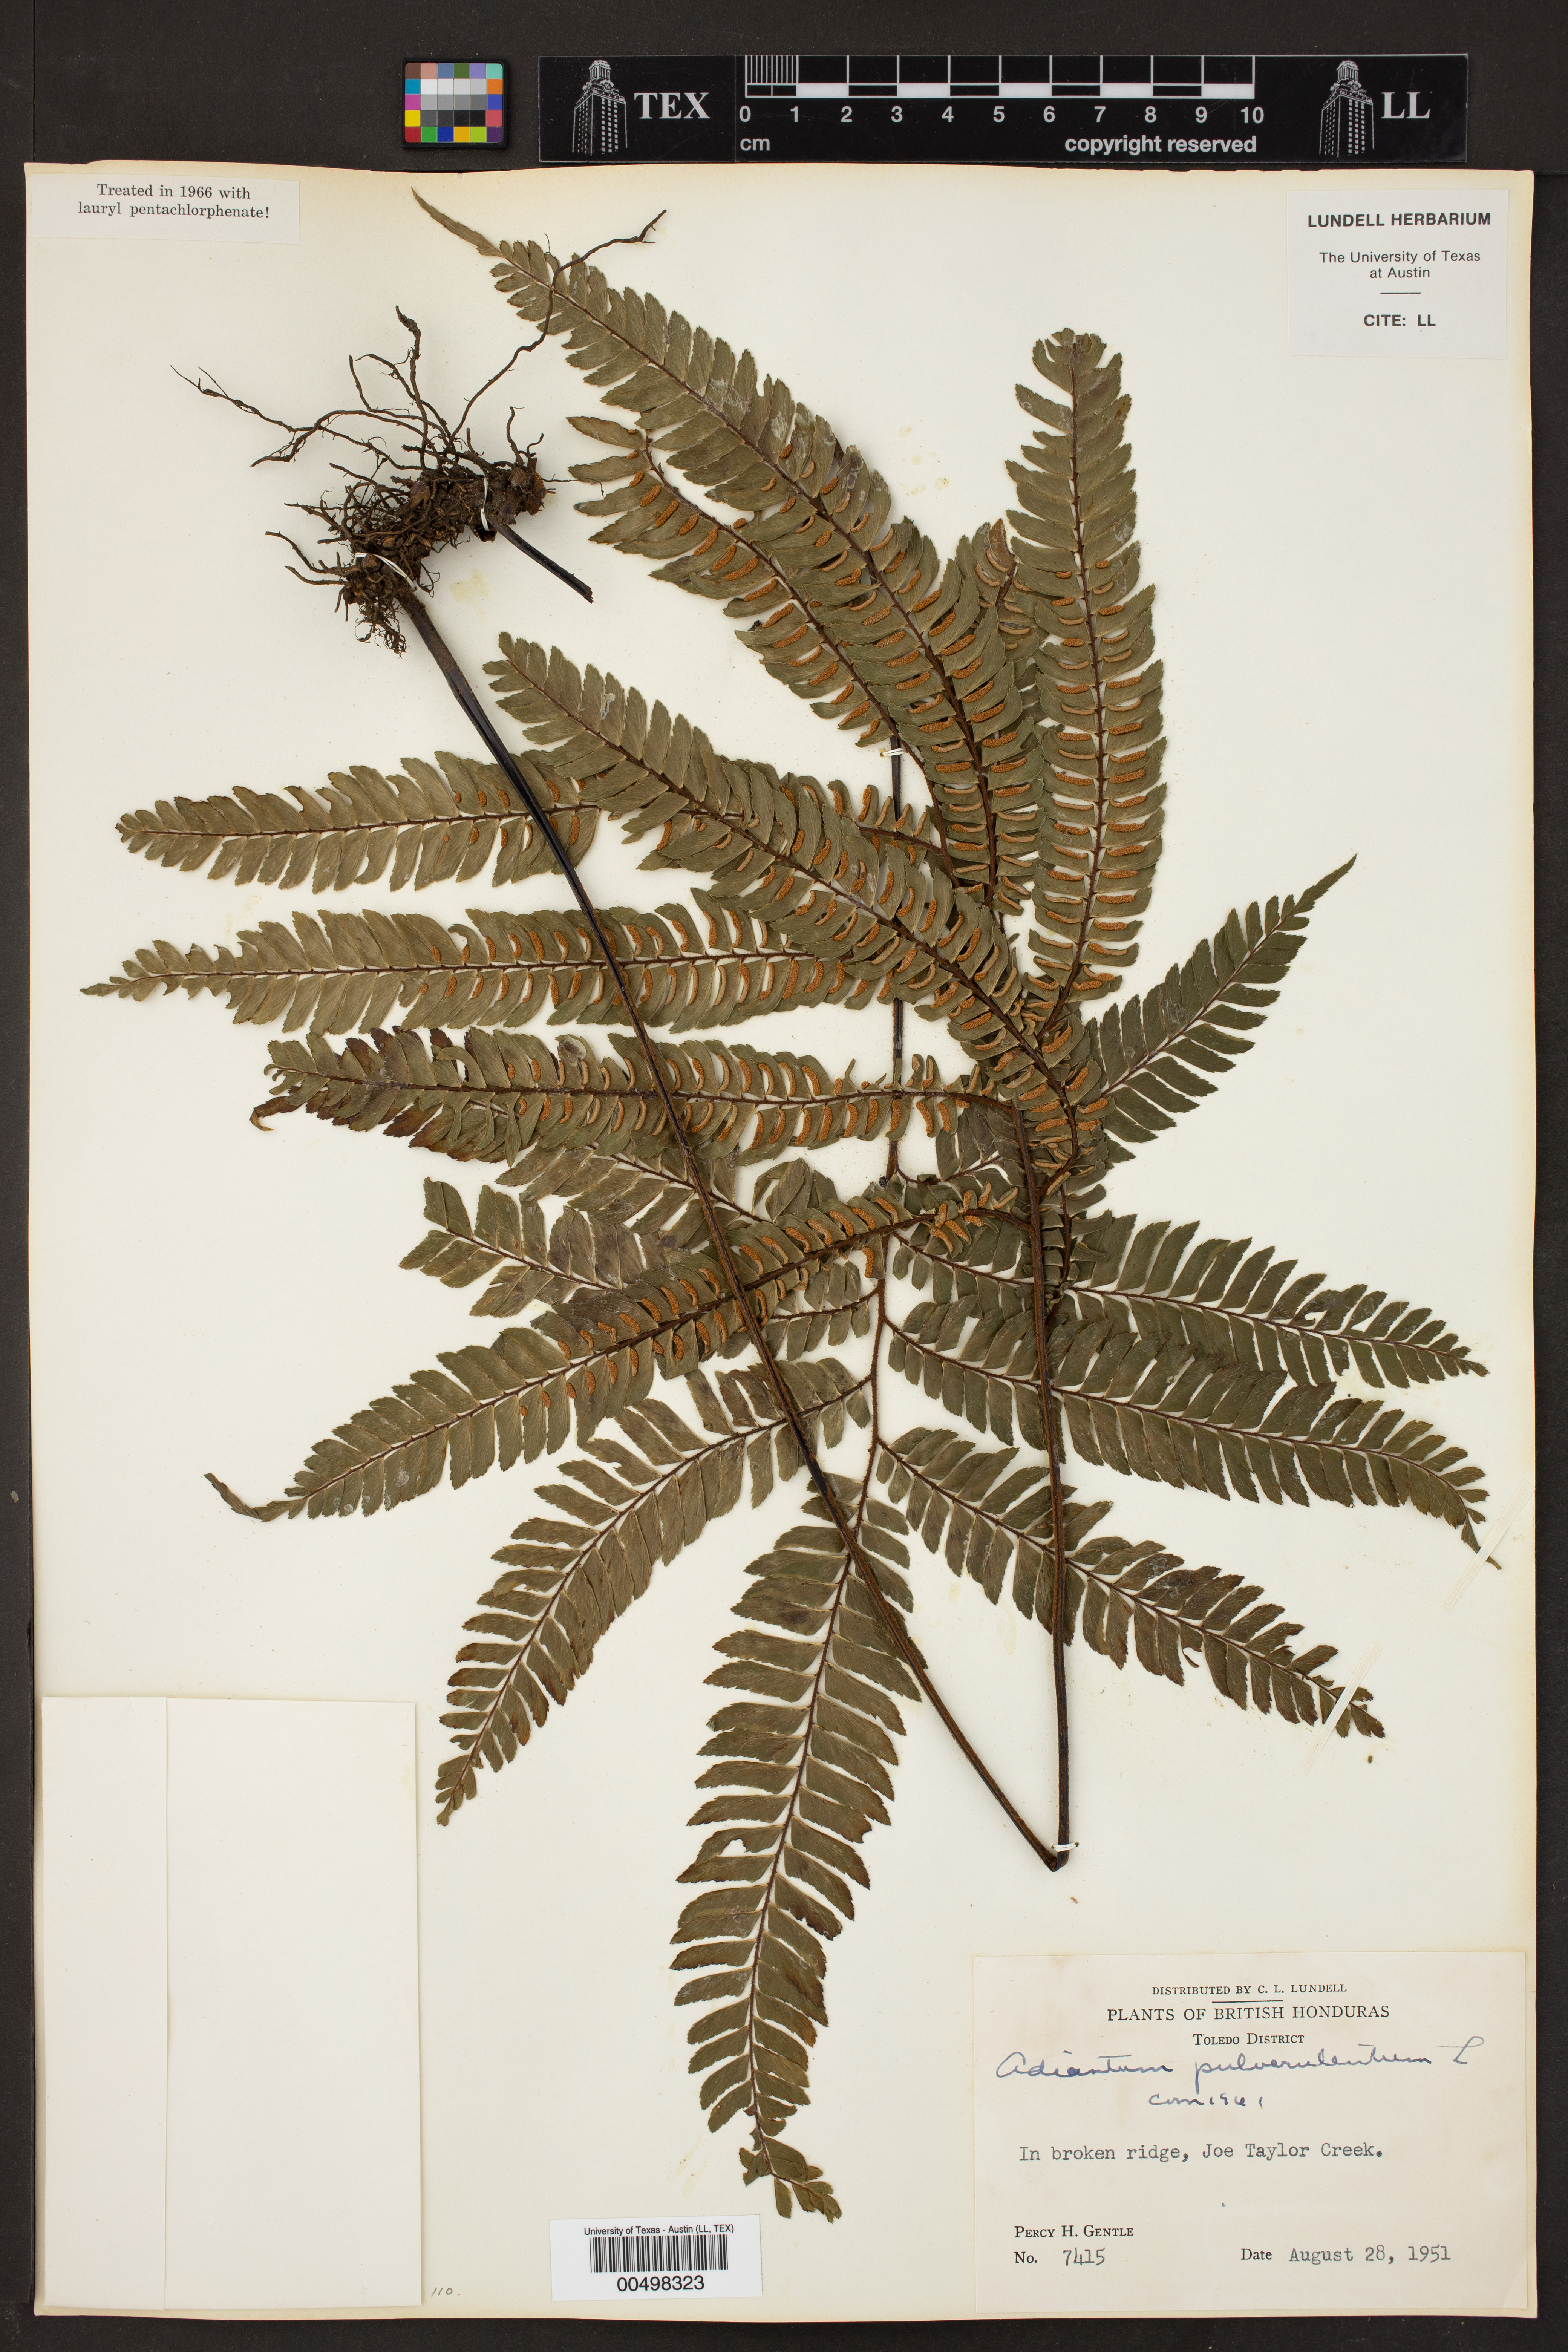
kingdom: Plantae
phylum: Tracheophyta
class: Polypodiopsida
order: Polypodiales
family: Pteridaceae
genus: Adiantum
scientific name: Adiantum pulverulentum
